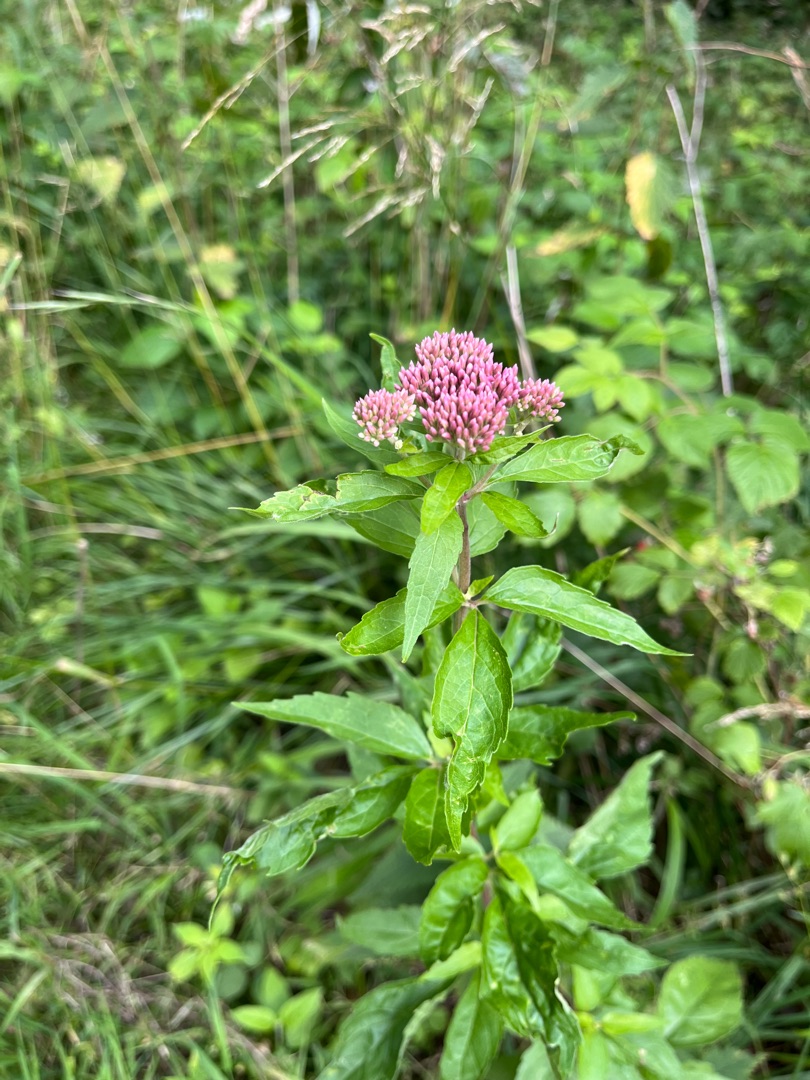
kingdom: Plantae
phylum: Tracheophyta
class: Magnoliopsida
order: Asterales
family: Asteraceae
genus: Eupatorium
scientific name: Eupatorium cannabinum
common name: Hjortetrøst
